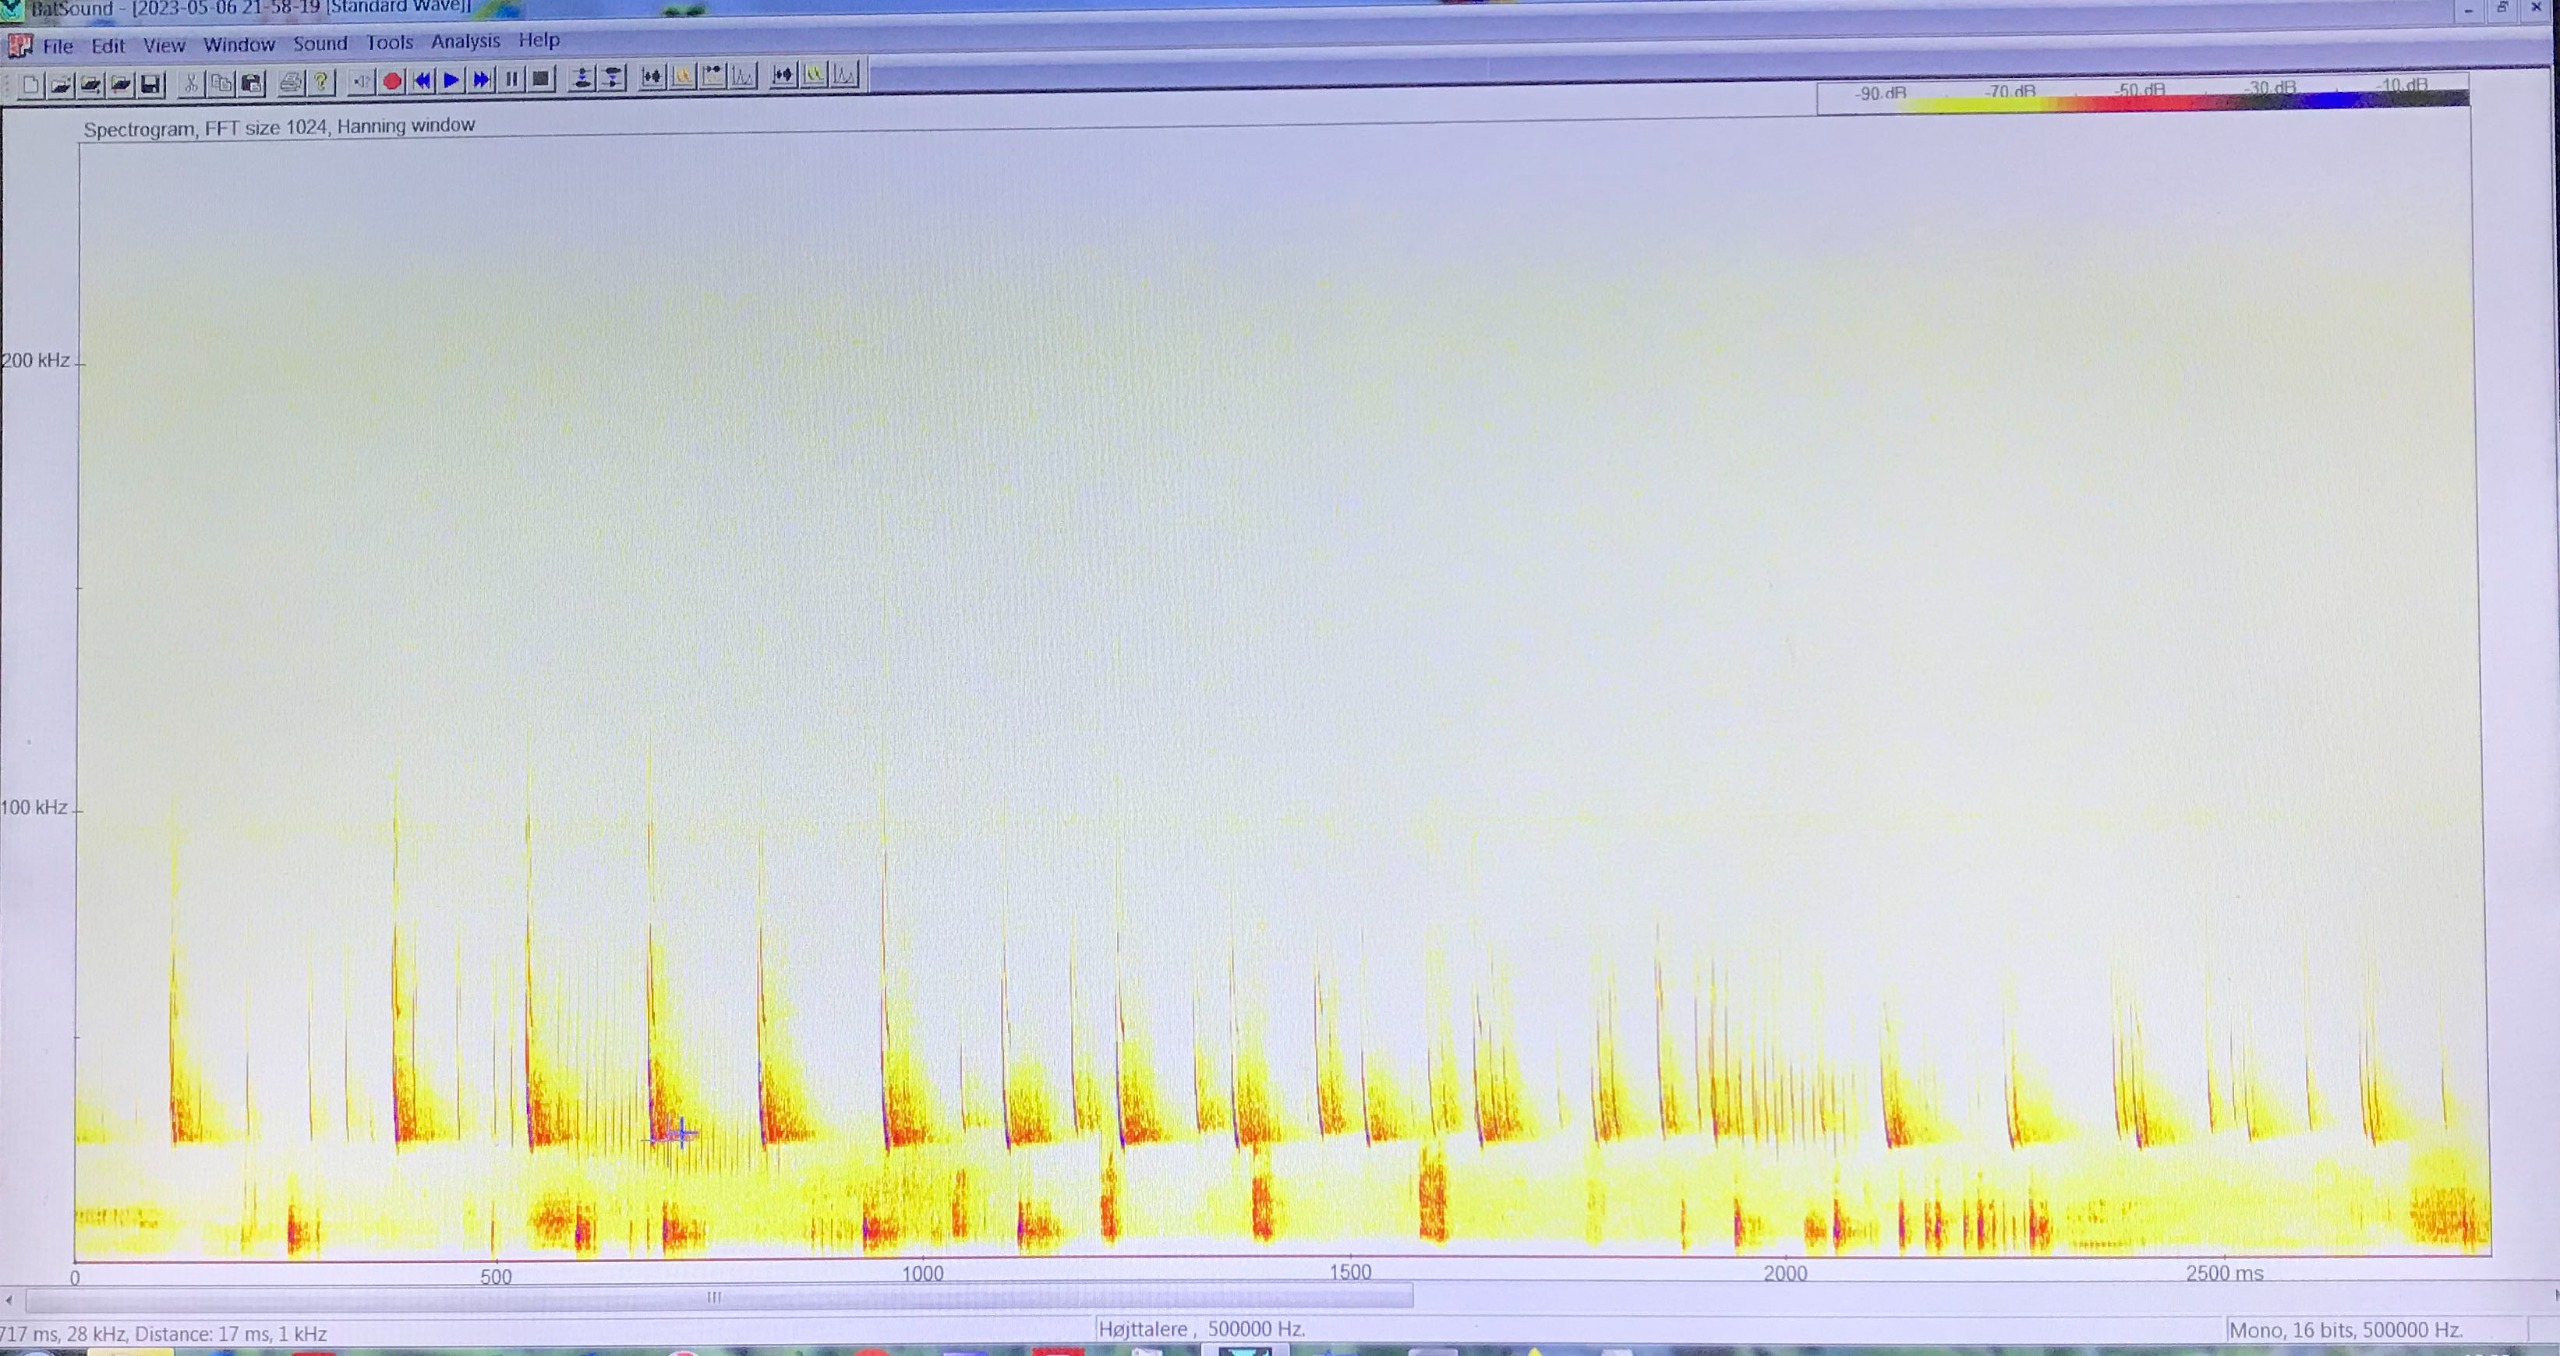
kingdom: Animalia
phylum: Chordata
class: Mammalia
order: Chiroptera
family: Vespertilionidae
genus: Eptesicus
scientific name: Eptesicus serotinus
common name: Sydflagermus
